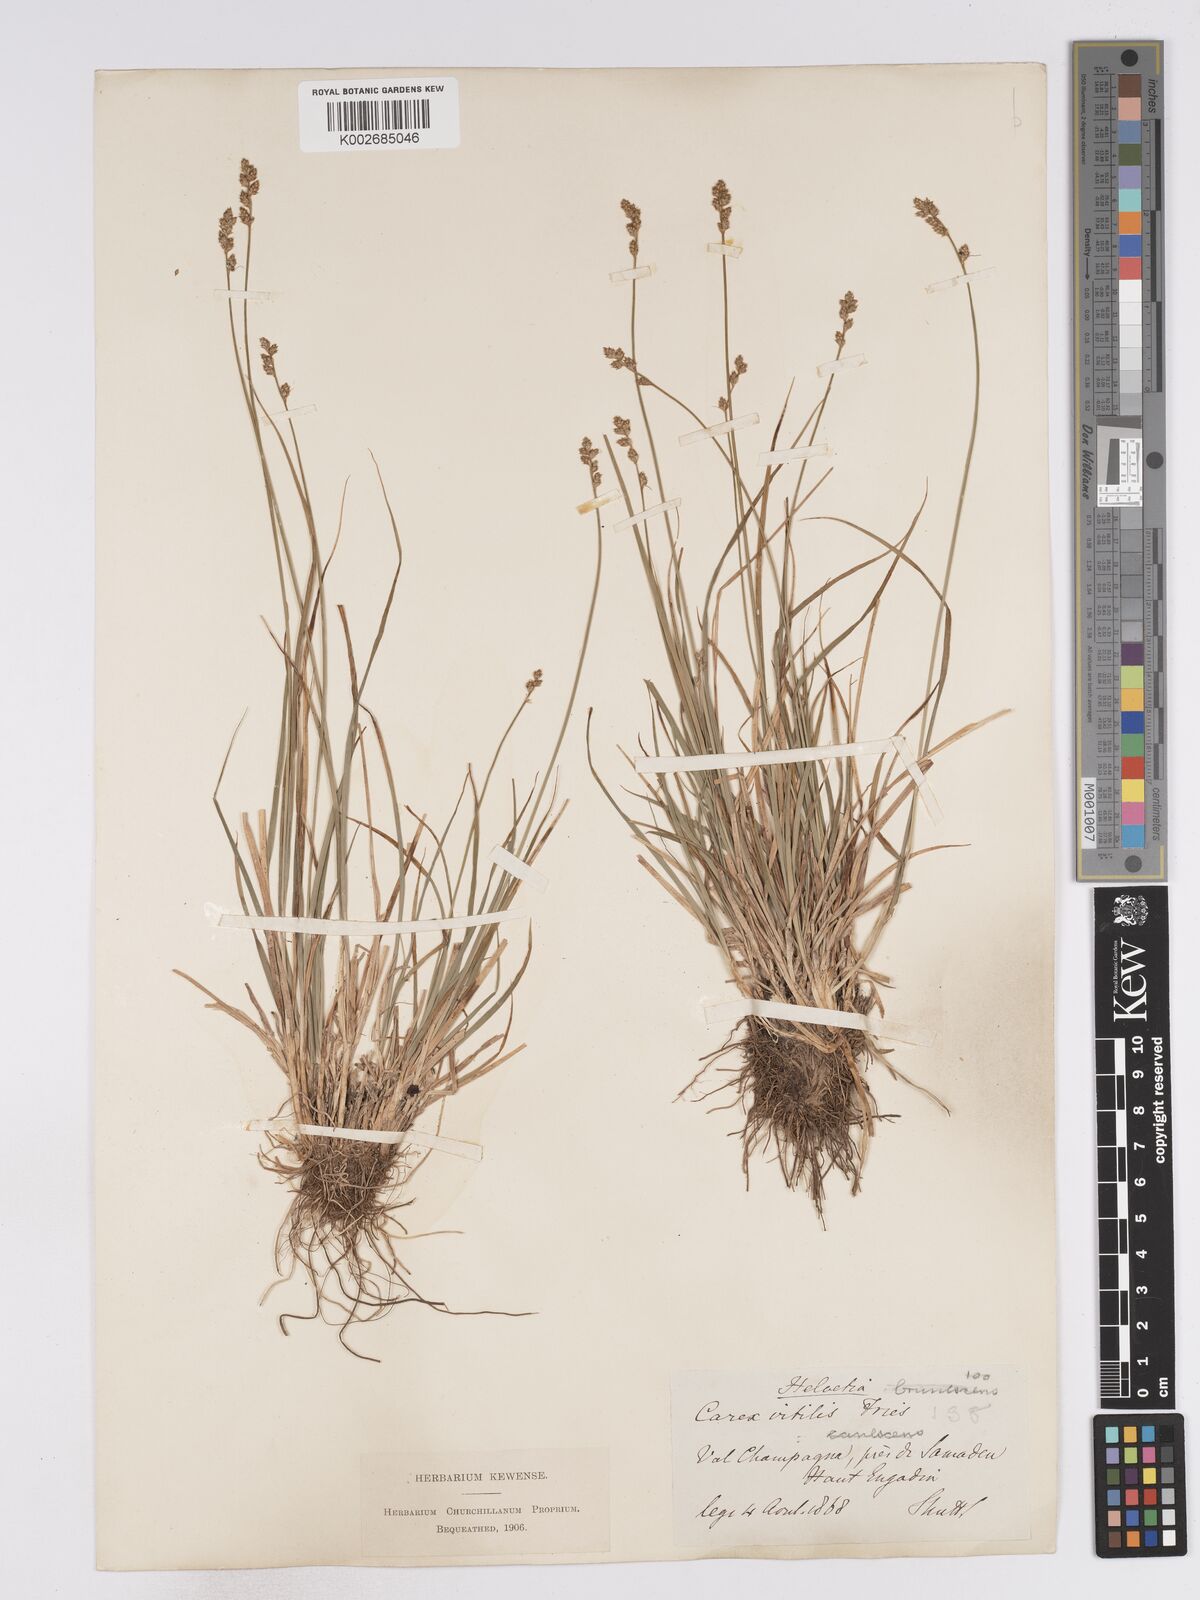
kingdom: Plantae
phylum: Tracheophyta
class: Liliopsida
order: Poales
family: Cyperaceae
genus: Carex
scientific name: Carex brunnescens
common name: Brown sedge
